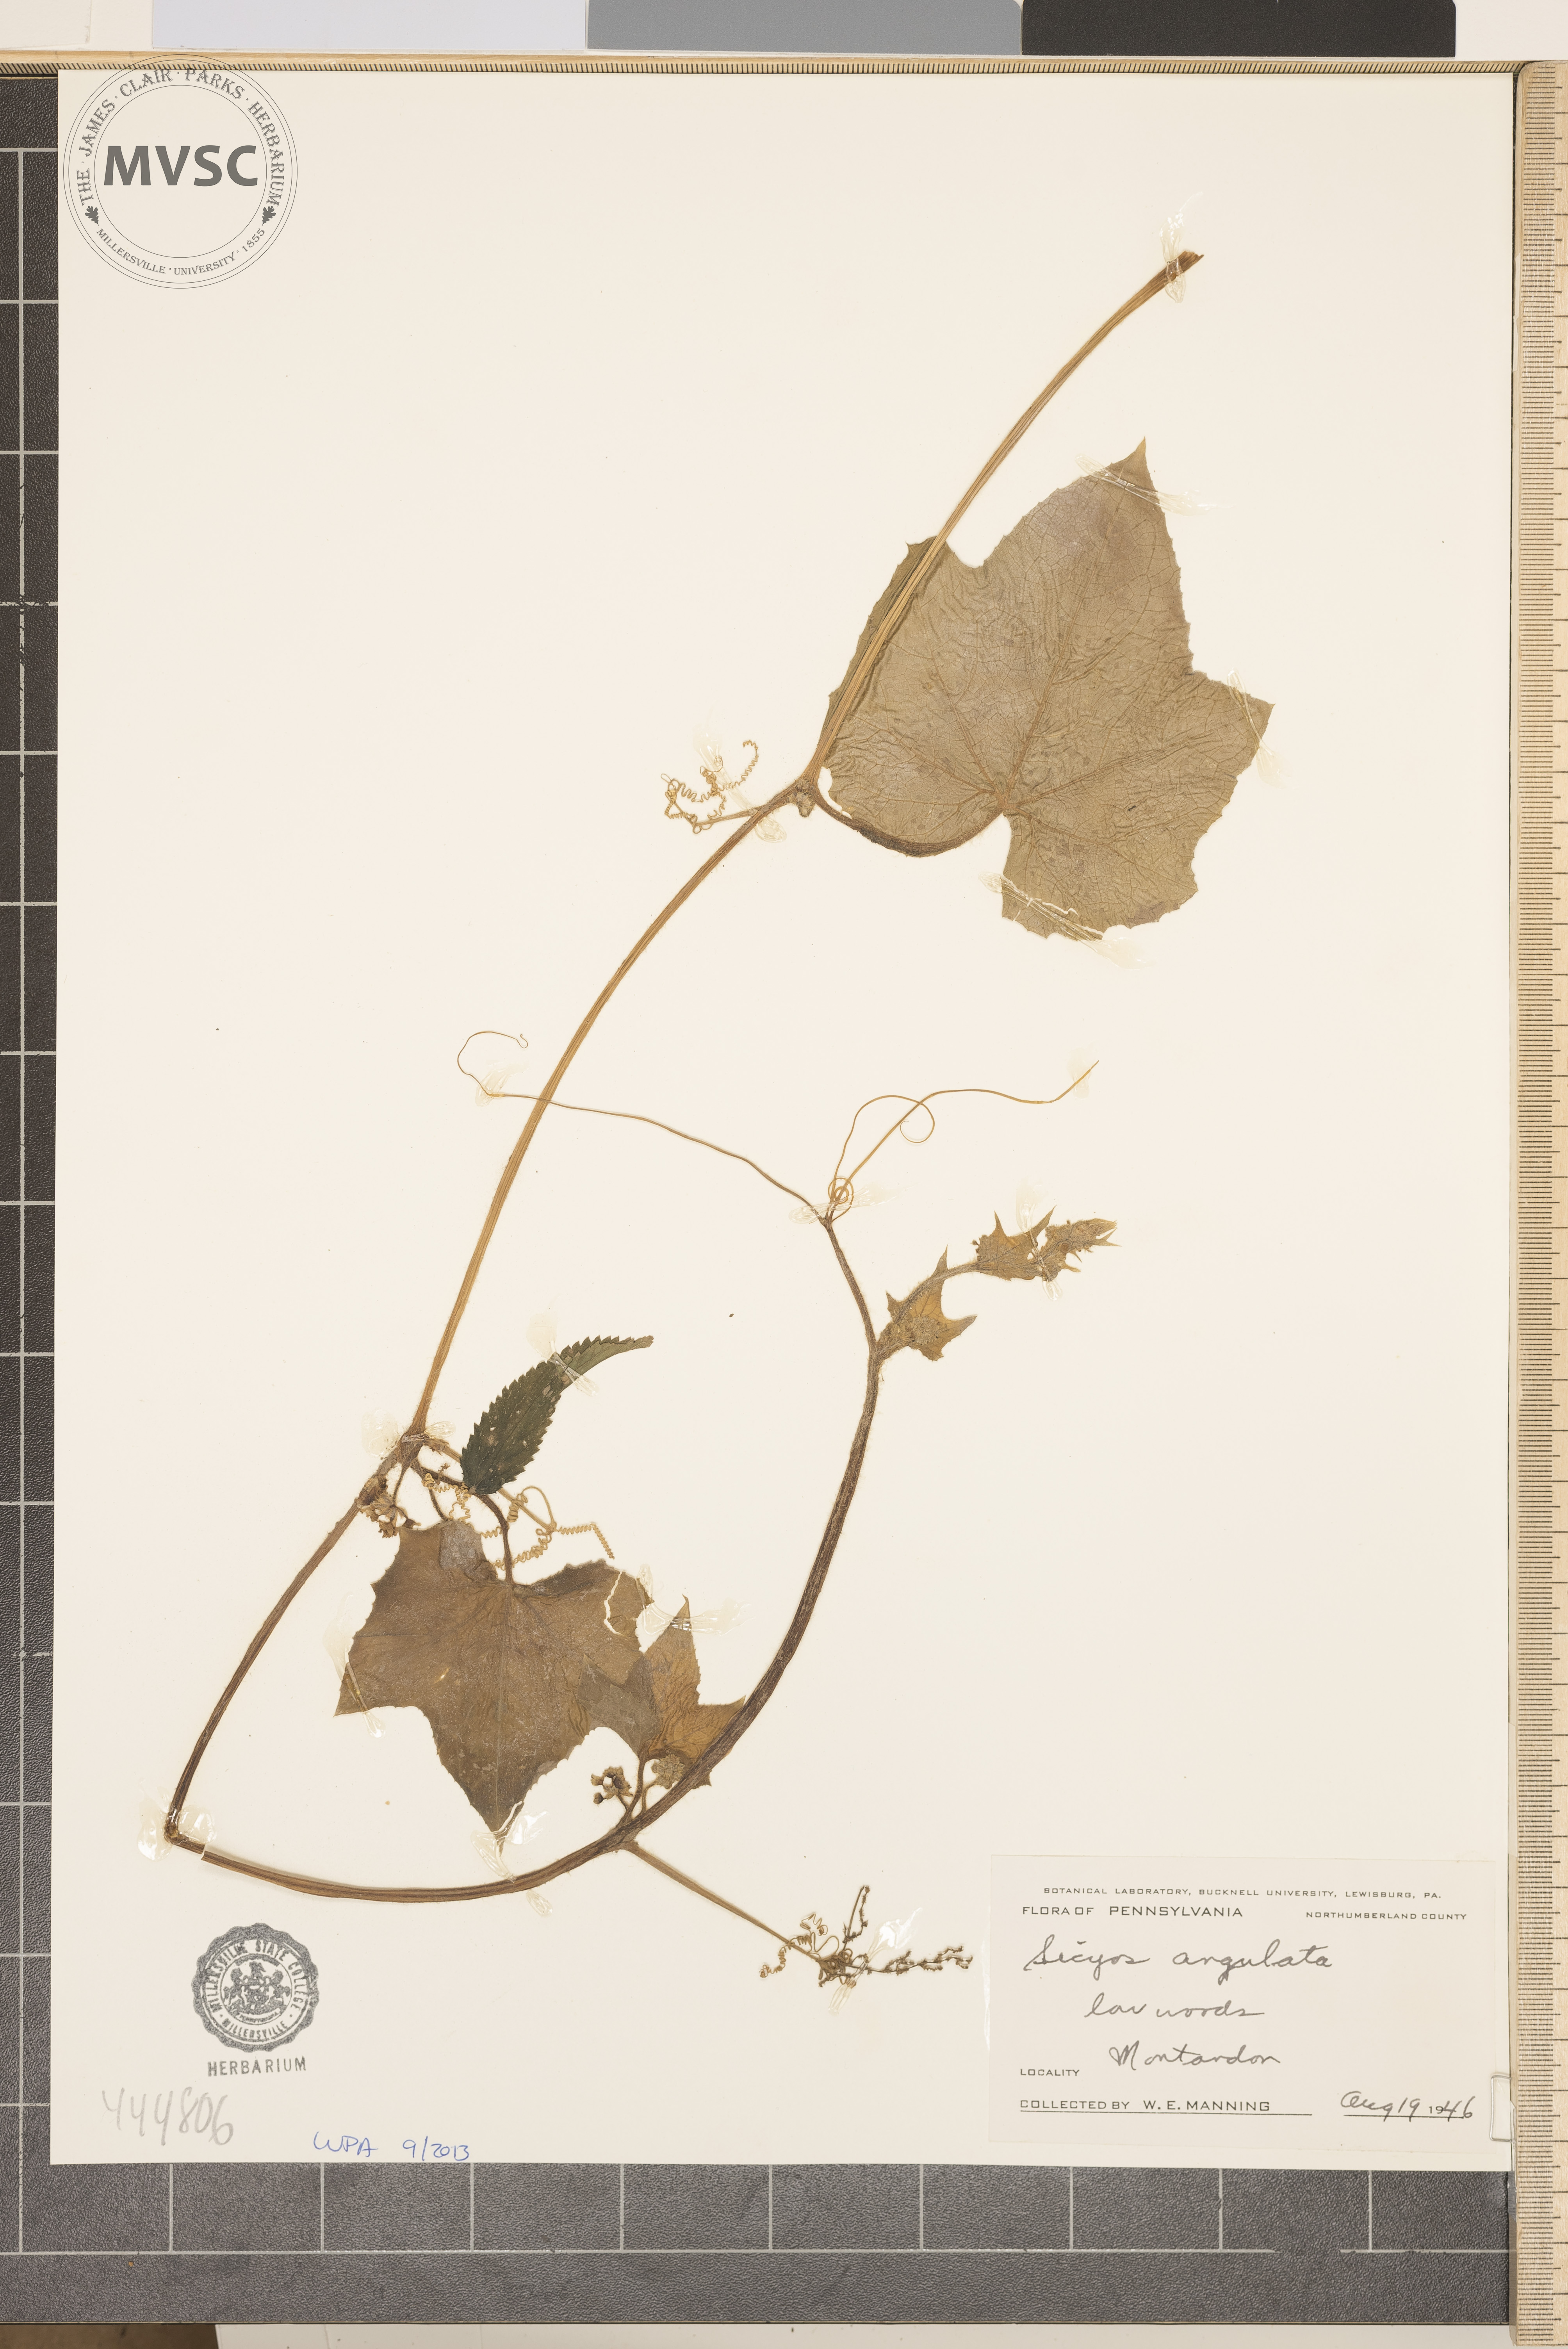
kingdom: Plantae
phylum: Tracheophyta
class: Magnoliopsida
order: Cucurbitales
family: Cucurbitaceae
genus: Sicyos
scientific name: Sicyos angulatus
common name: Angled burr cucumber
